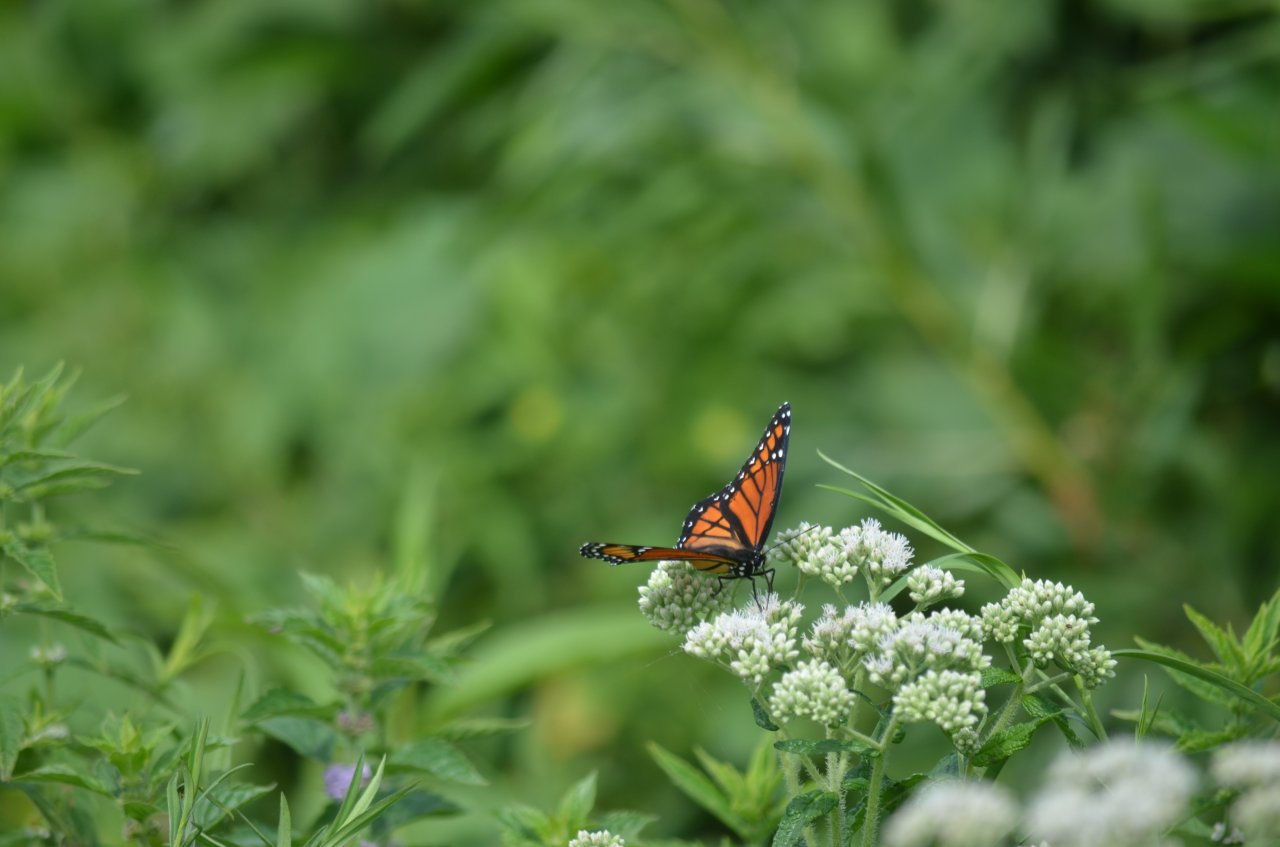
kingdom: Animalia
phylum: Arthropoda
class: Insecta
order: Lepidoptera
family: Nymphalidae
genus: Limenitis
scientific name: Limenitis archippus
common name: Viceroy
